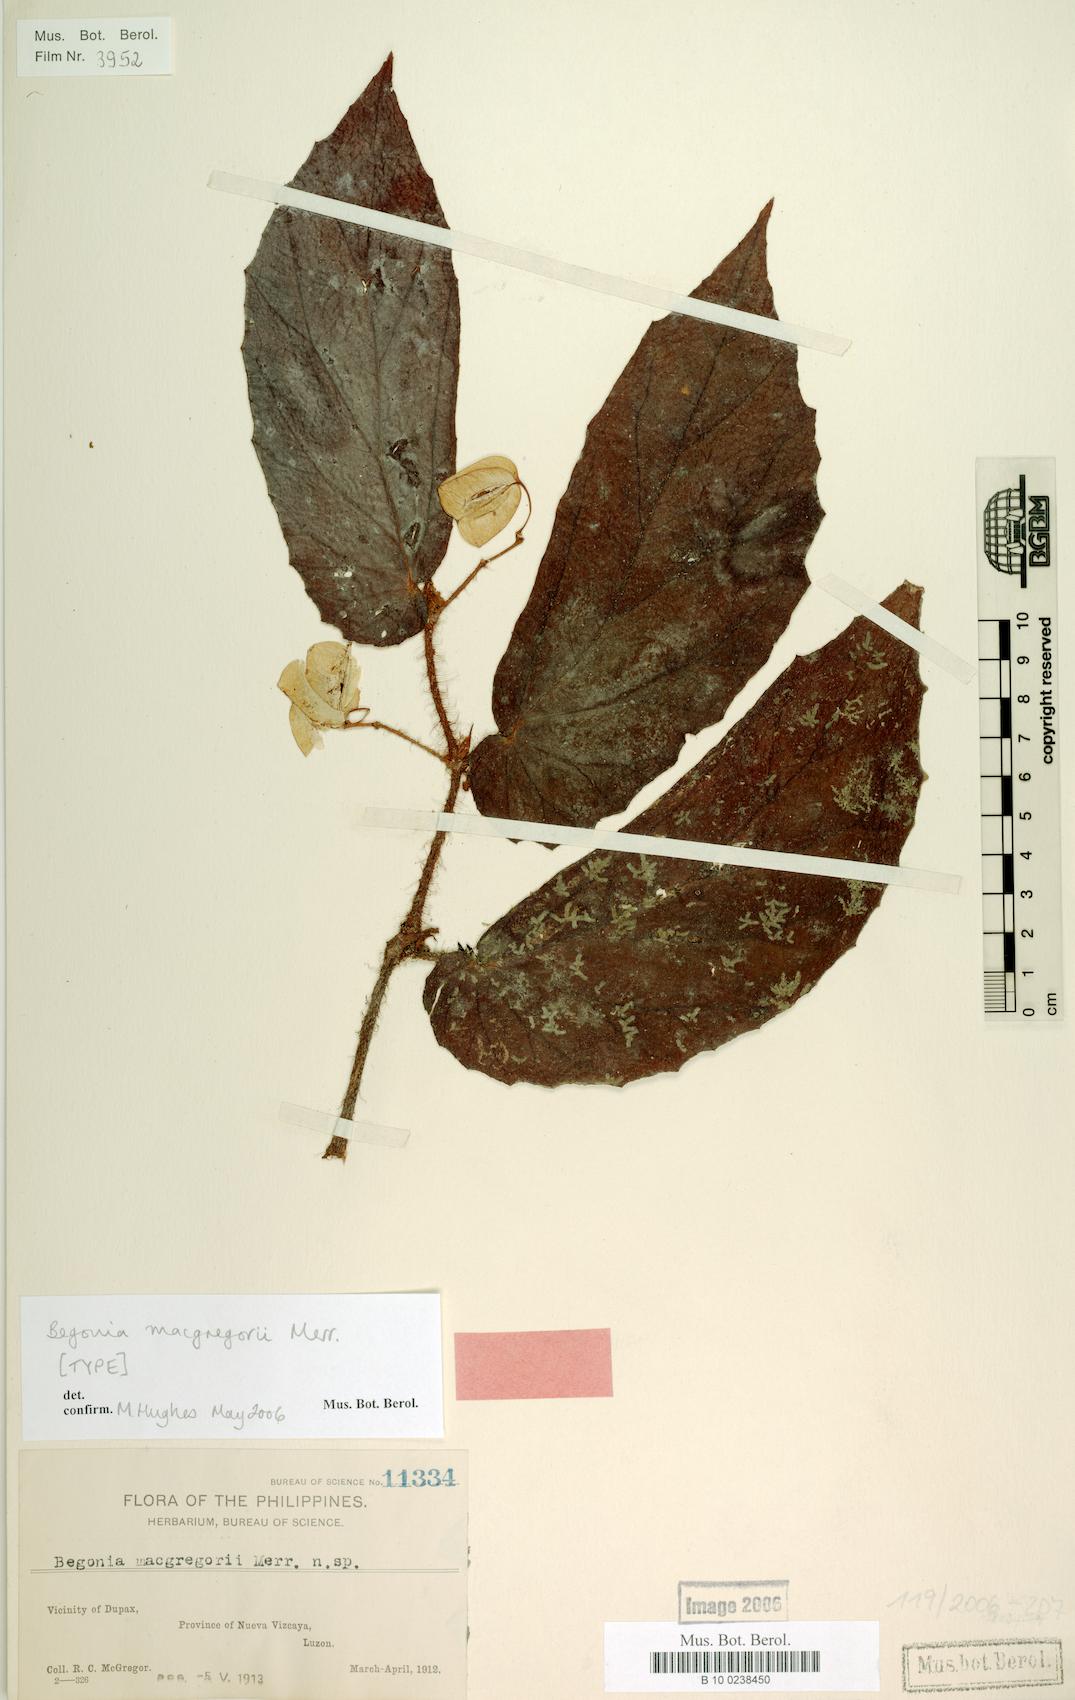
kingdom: Plantae
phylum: Tracheophyta
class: Magnoliopsida
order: Cucurbitales
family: Begoniaceae
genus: Begonia
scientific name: Begonia macgregorii
